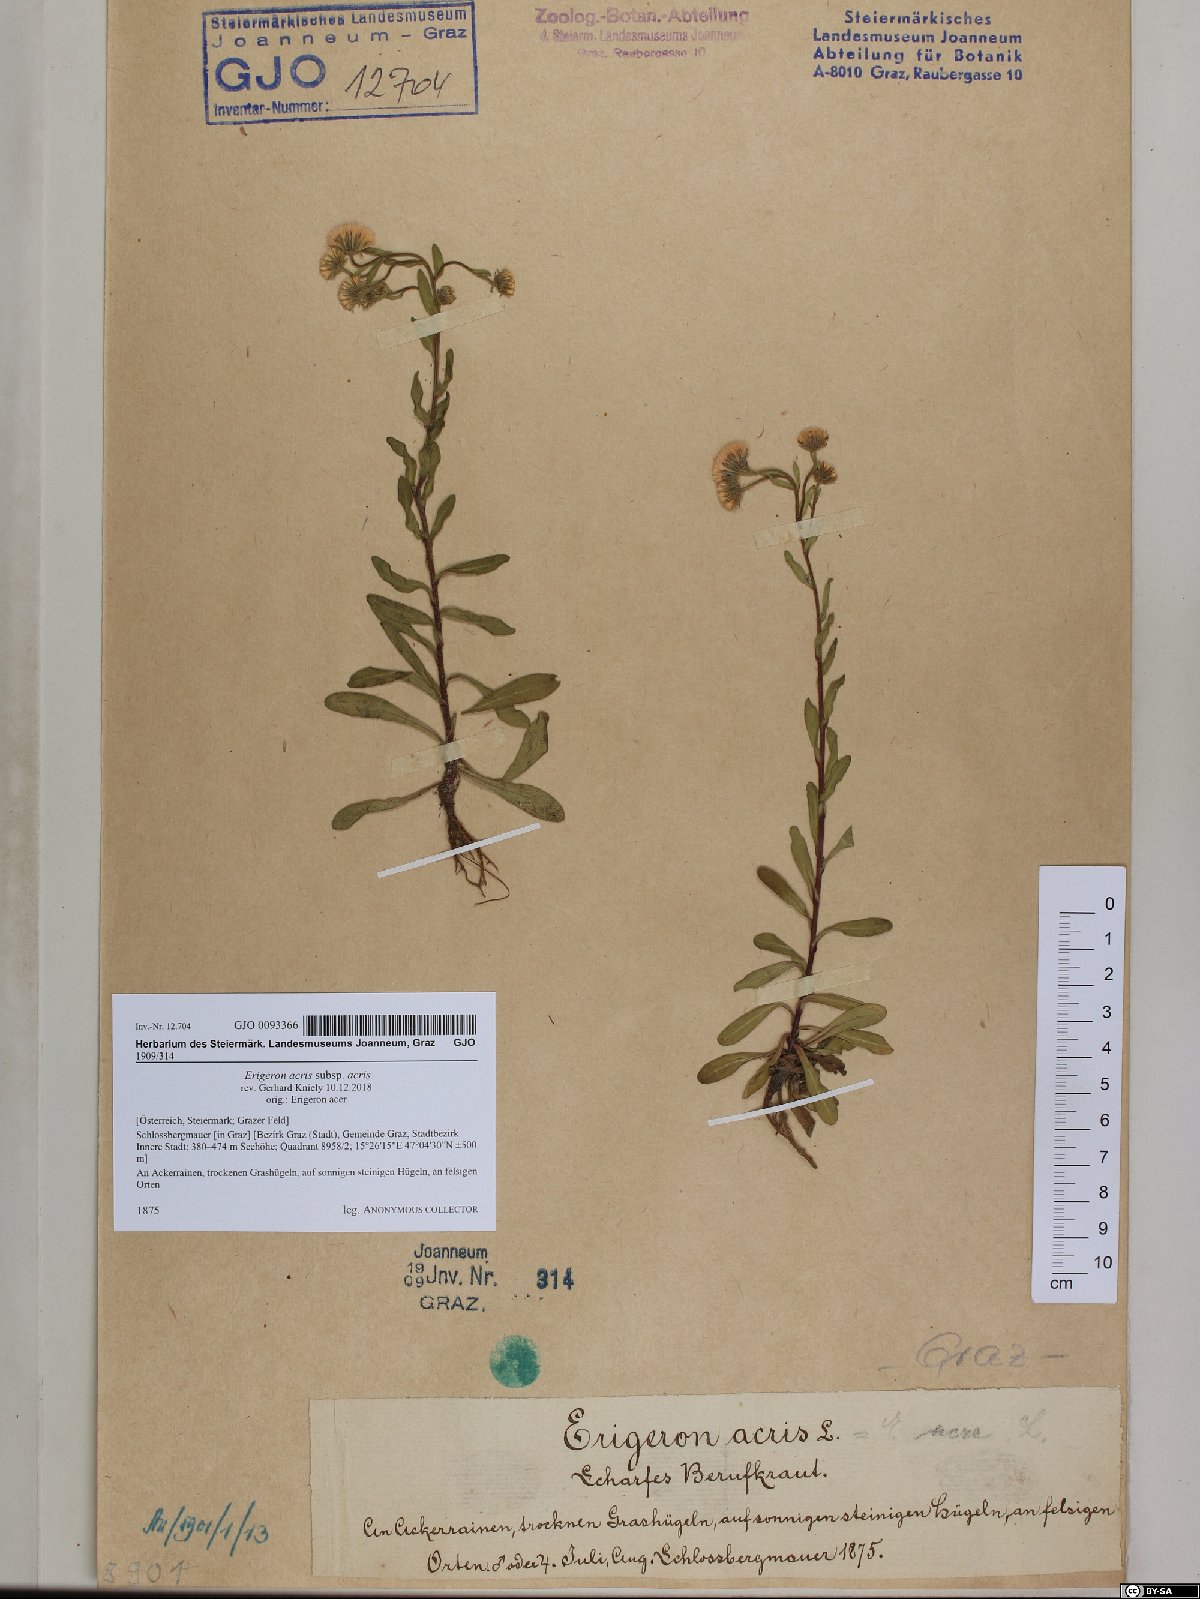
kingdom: Plantae
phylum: Tracheophyta
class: Magnoliopsida
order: Asterales
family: Asteraceae
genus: Erigeron
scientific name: Erigeron acris
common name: Blue fleabane
